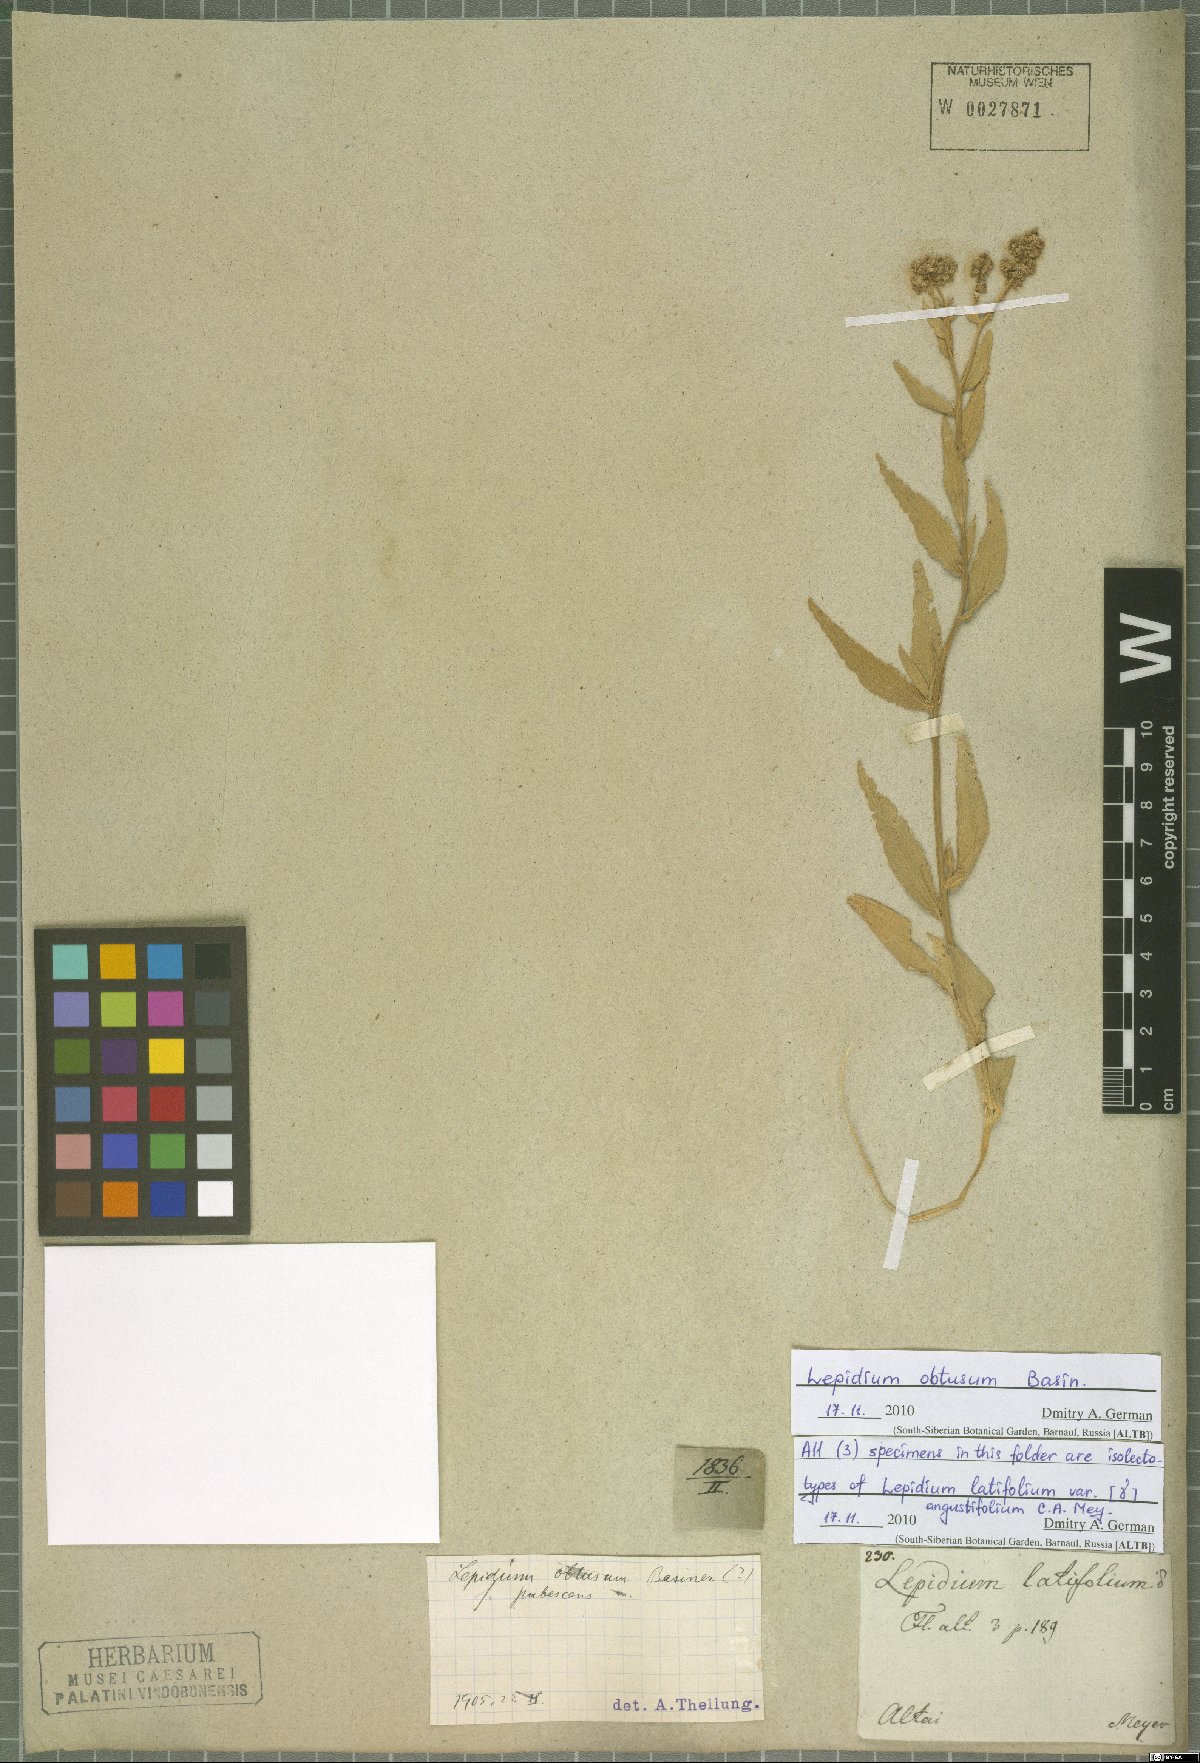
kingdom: Plantae
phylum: Tracheophyta
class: Magnoliopsida
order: Brassicales
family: Brassicaceae
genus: Lepidium
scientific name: Lepidium latifolium
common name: Dittander
